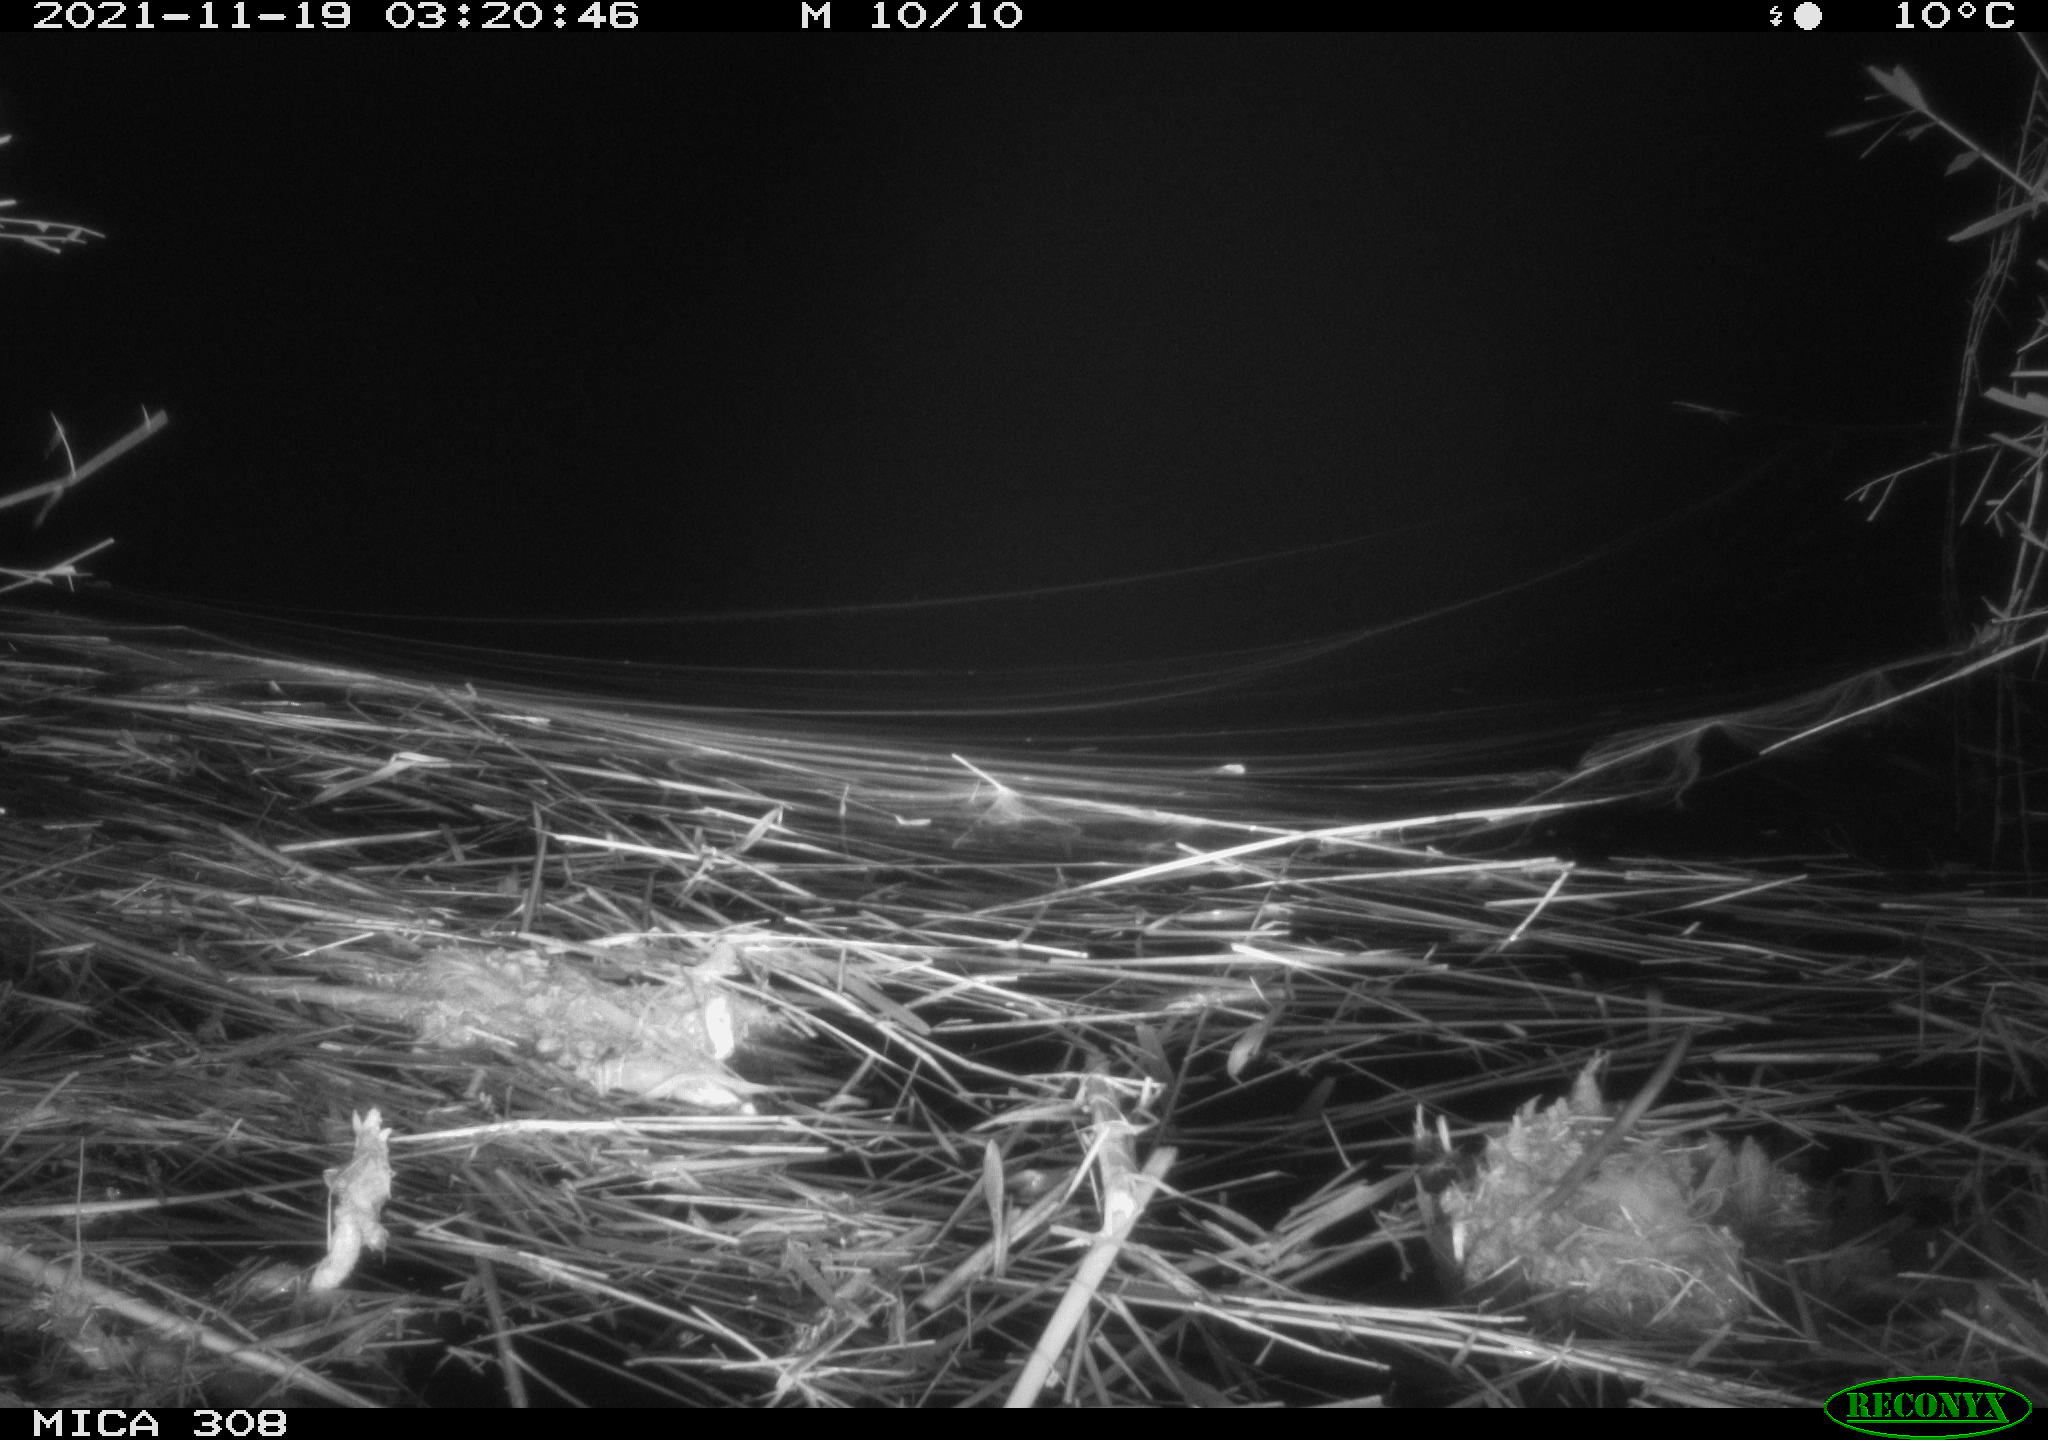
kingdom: Animalia
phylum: Chordata
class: Mammalia
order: Rodentia
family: Muridae
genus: Rattus
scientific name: Rattus norvegicus
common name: Brown rat
